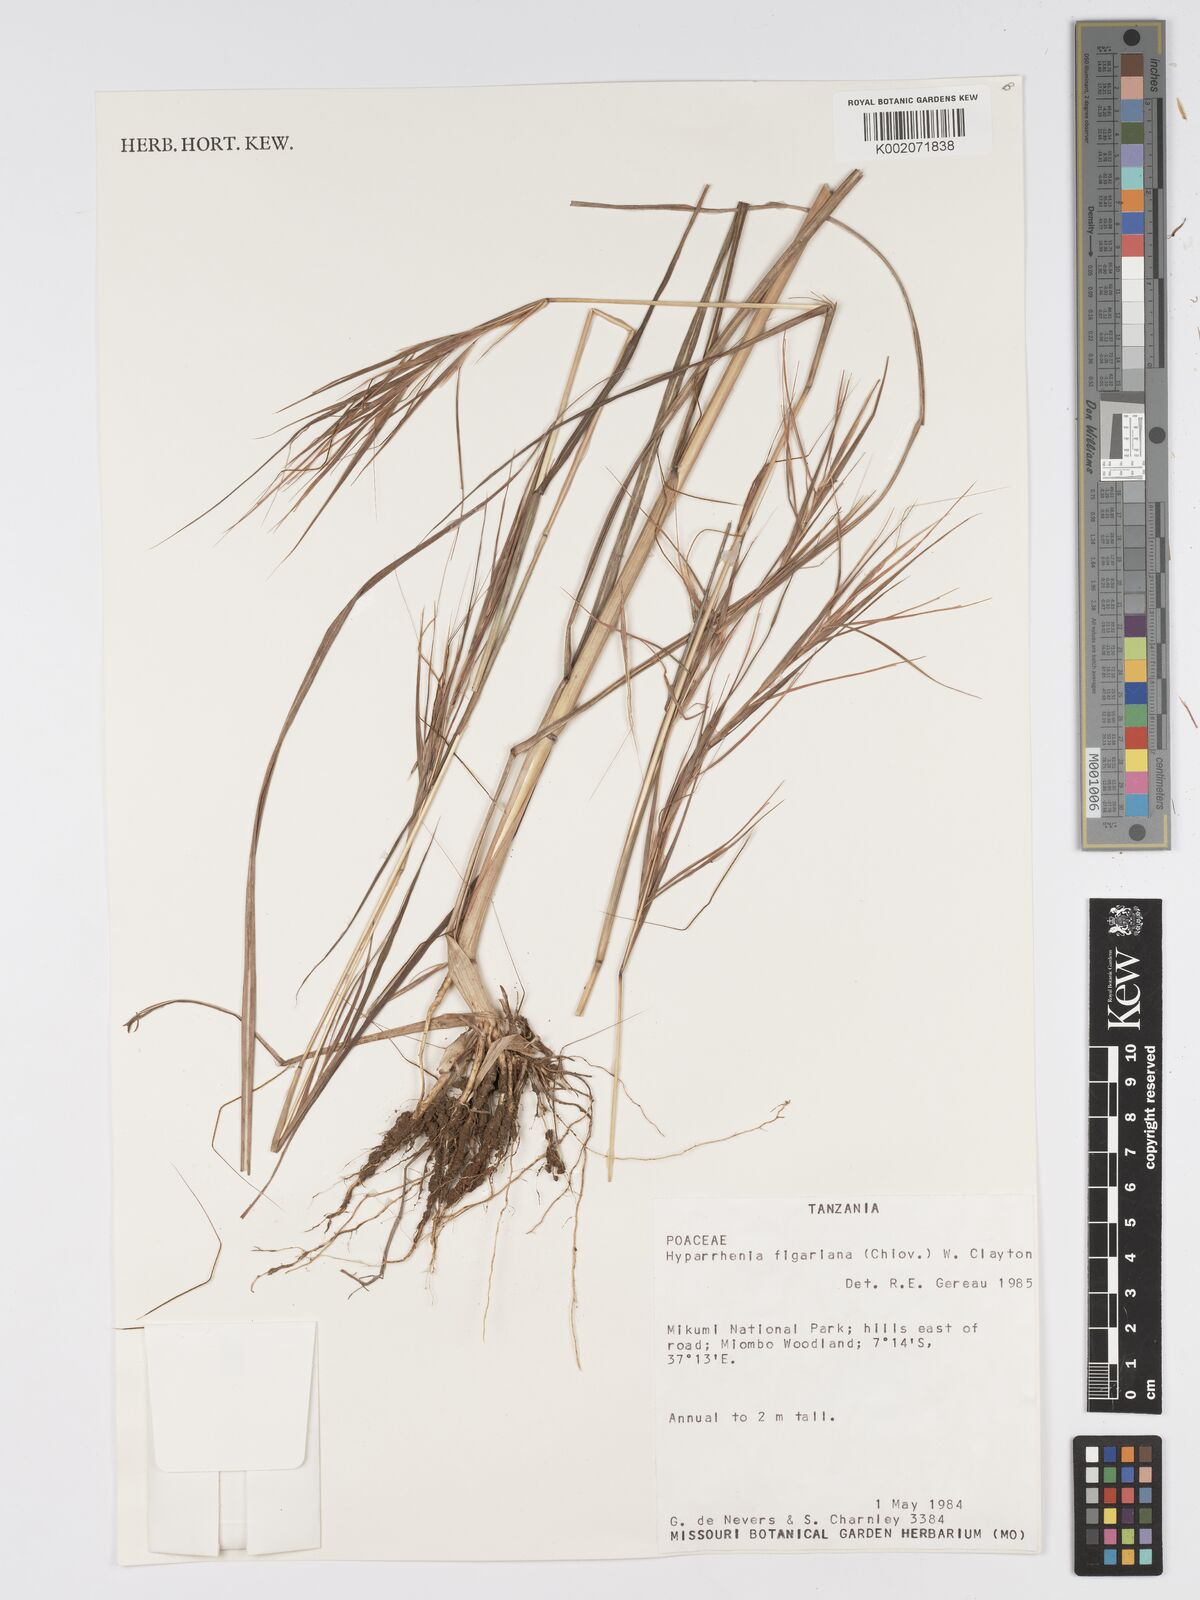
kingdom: Plantae
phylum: Tracheophyta
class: Liliopsida
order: Poales
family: Poaceae
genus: Hyparrhenia
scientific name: Hyparrhenia figariana
